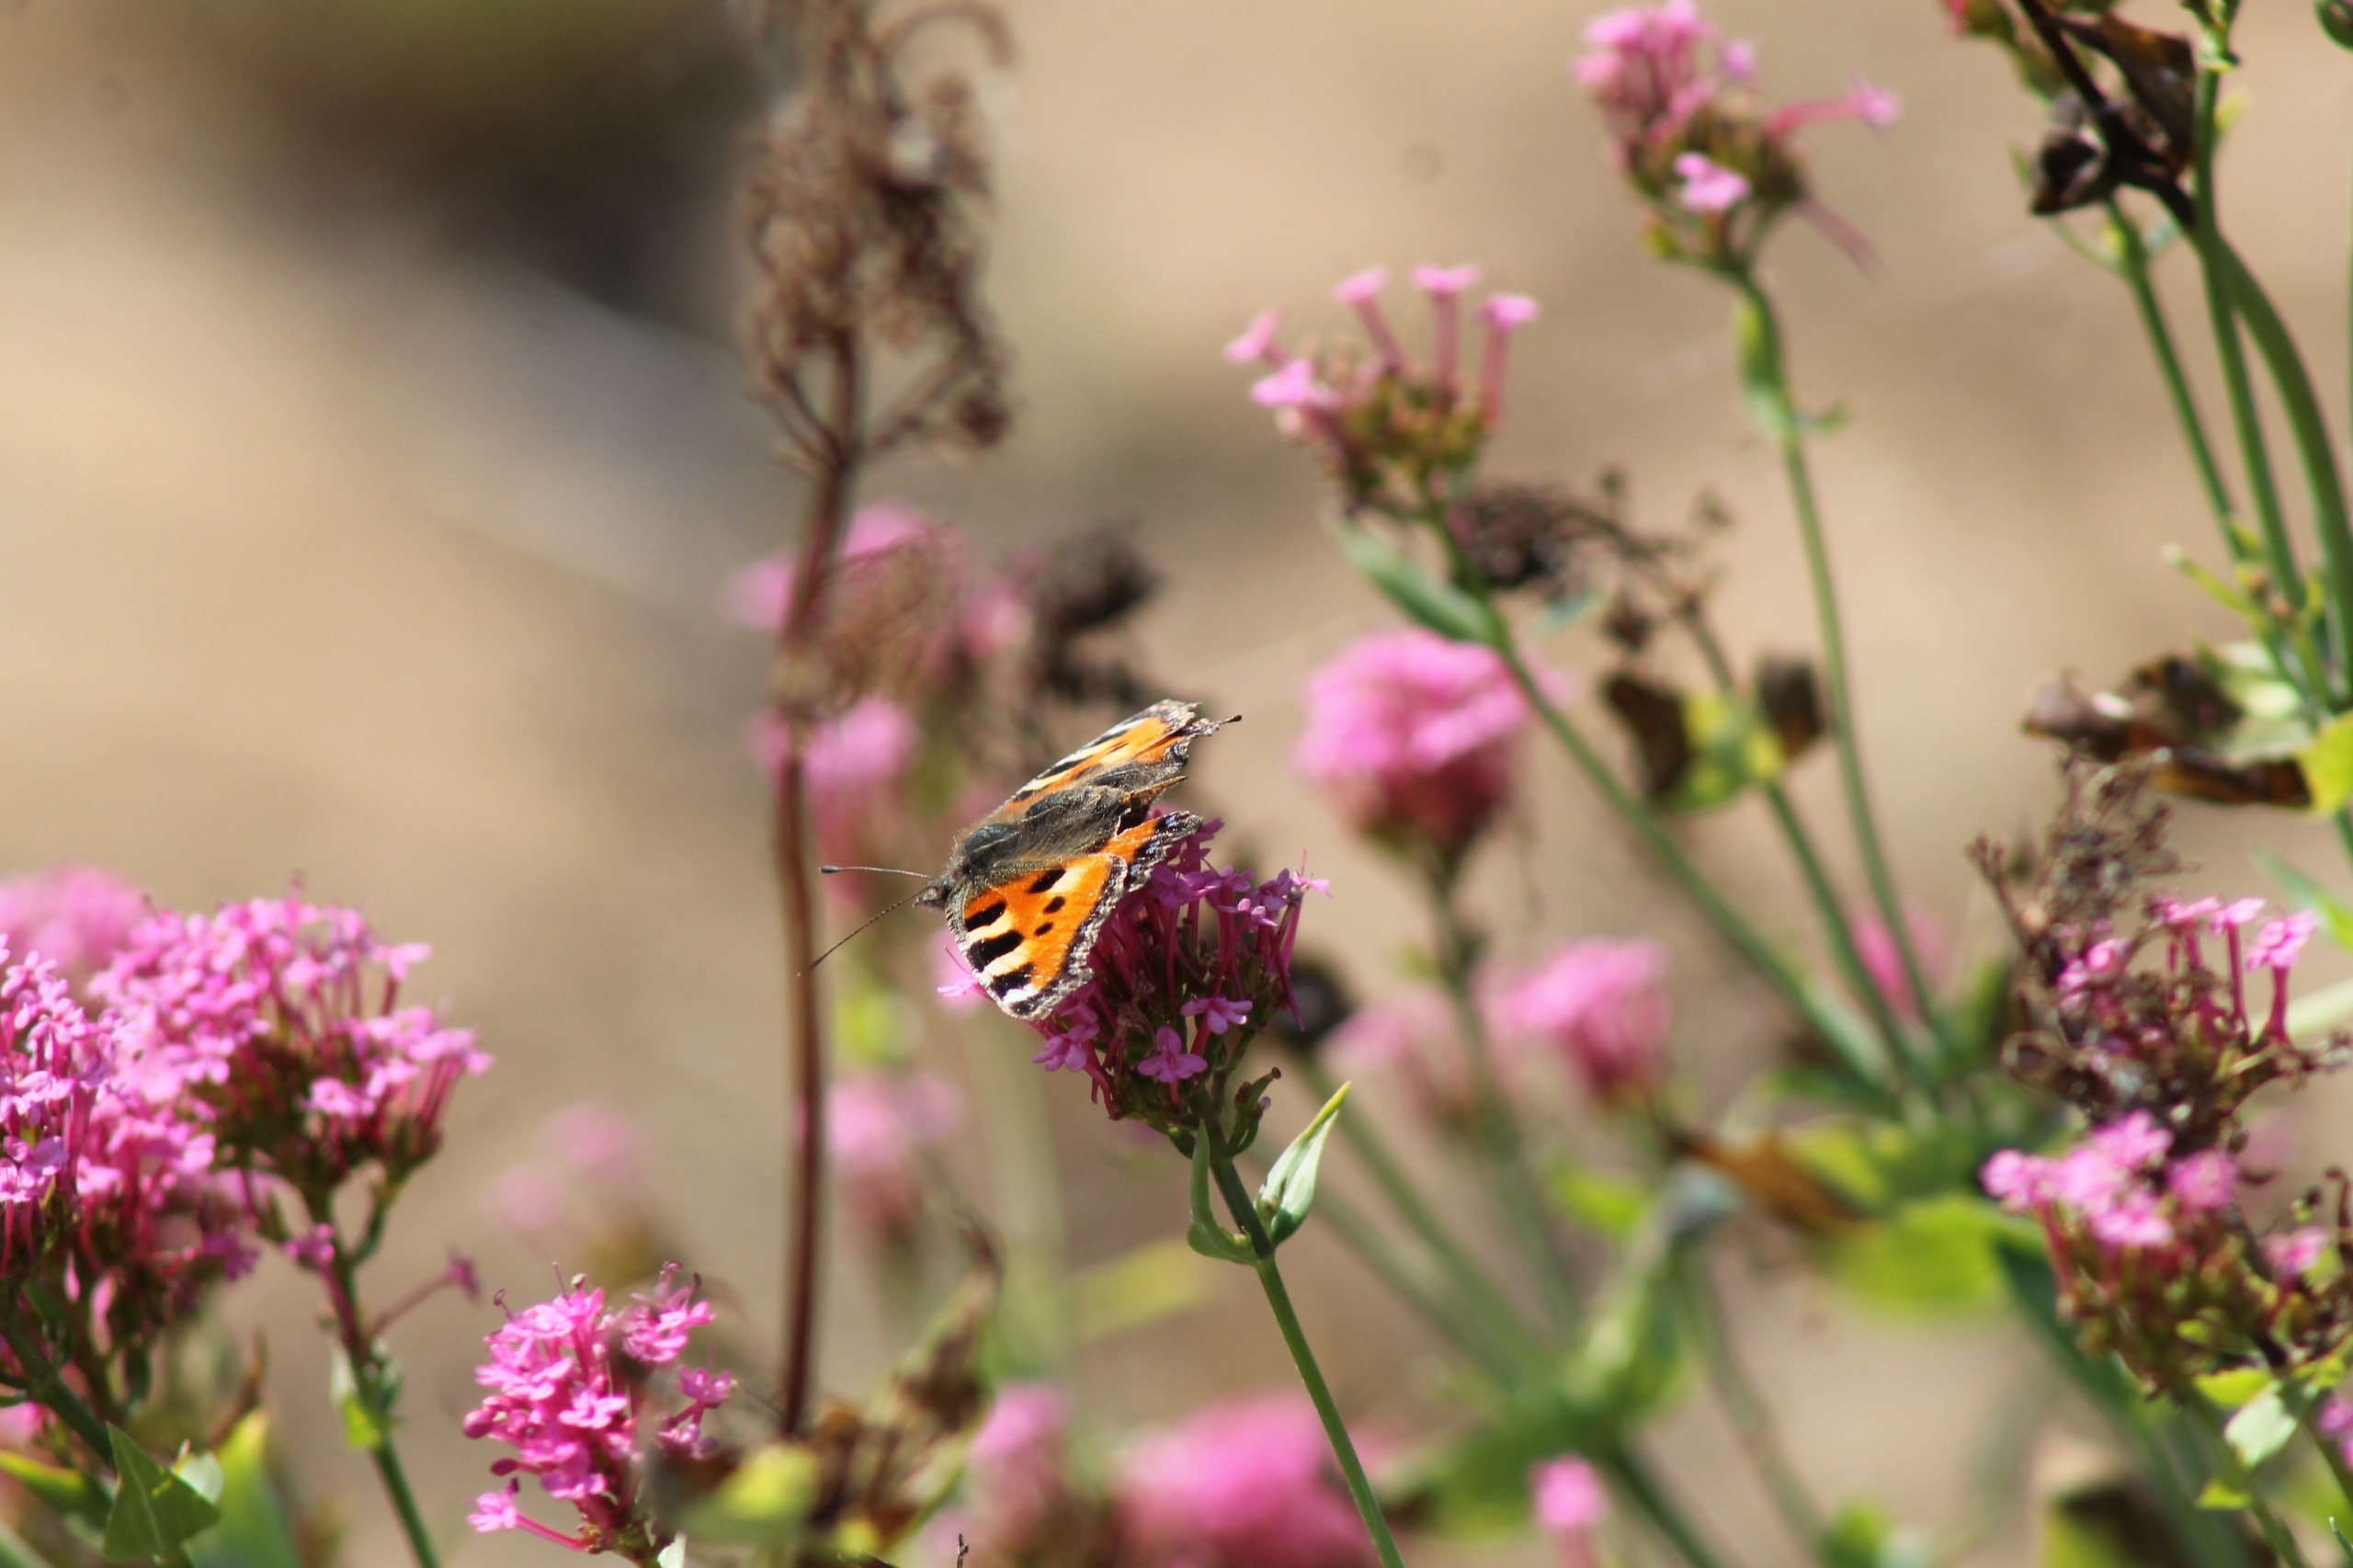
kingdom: Animalia
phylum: Arthropoda
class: Insecta
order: Lepidoptera
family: Nymphalidae
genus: Aglais
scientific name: Aglais urticae
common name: Nældens takvinge
